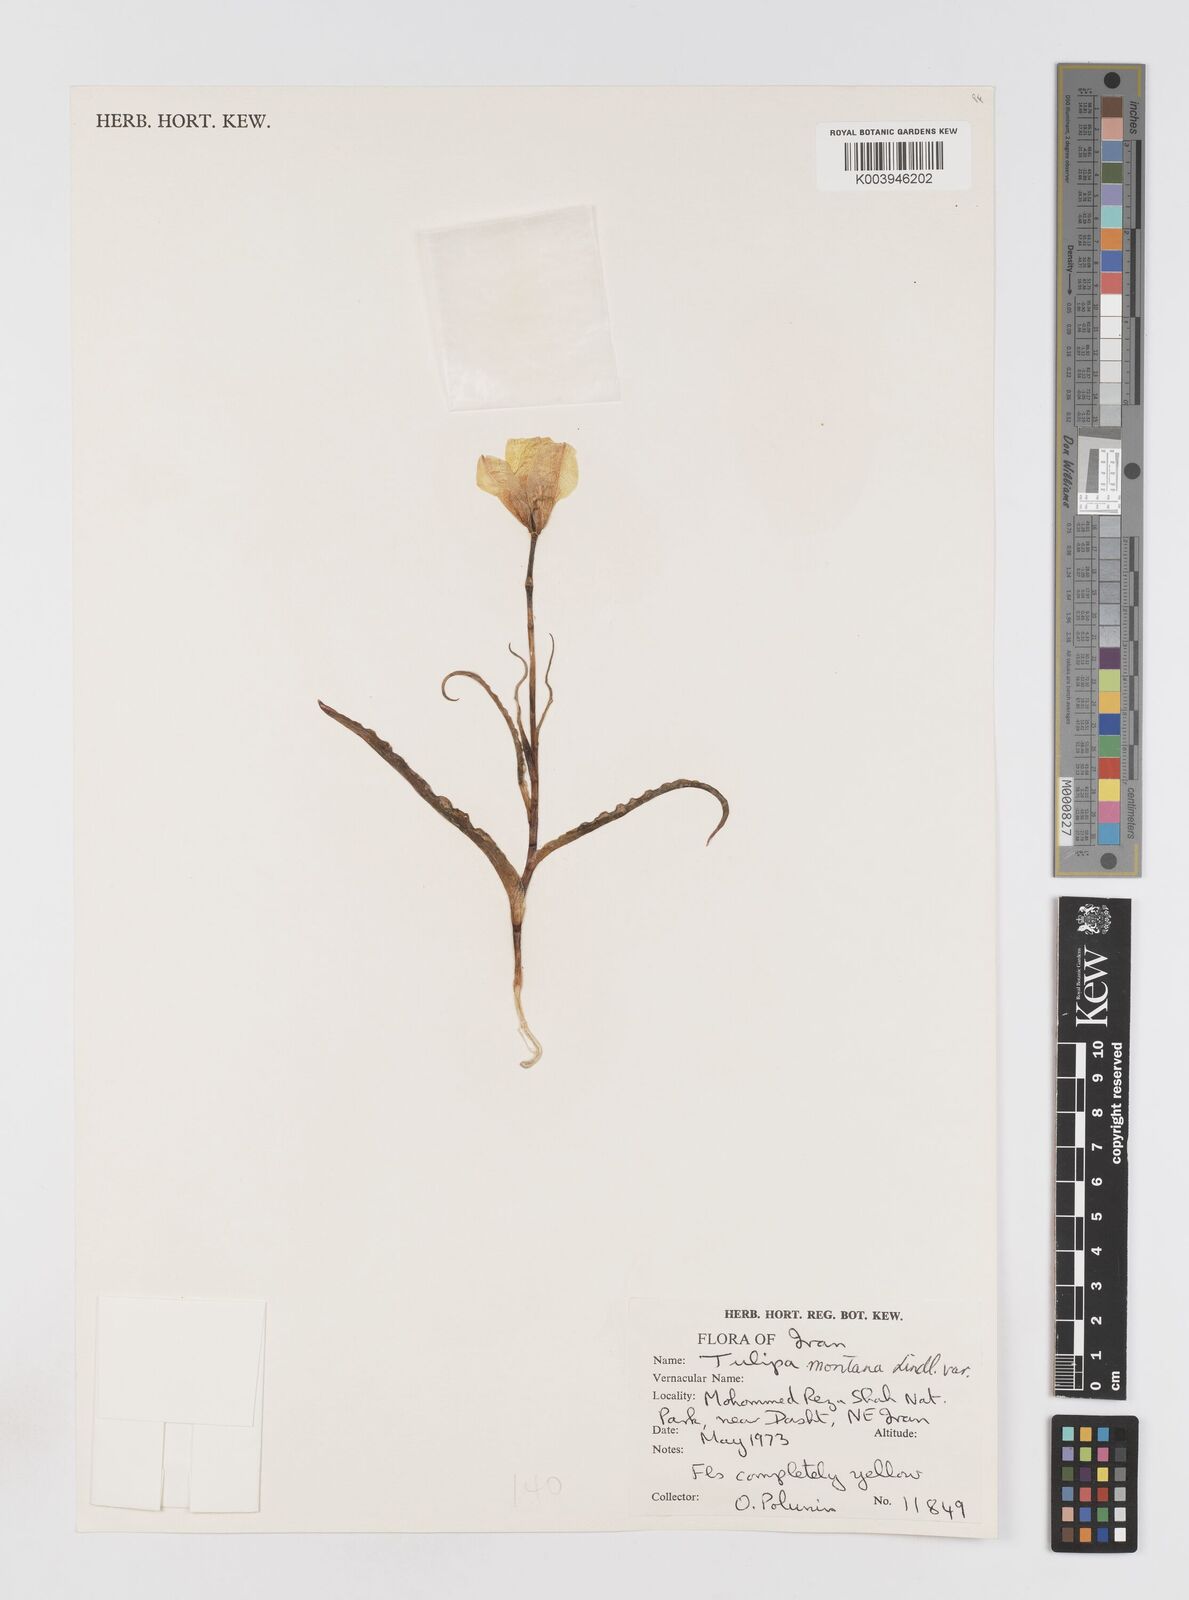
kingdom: Plantae
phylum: Tracheophyta
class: Liliopsida
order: Liliales
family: Liliaceae
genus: Tulipa
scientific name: Tulipa montana
